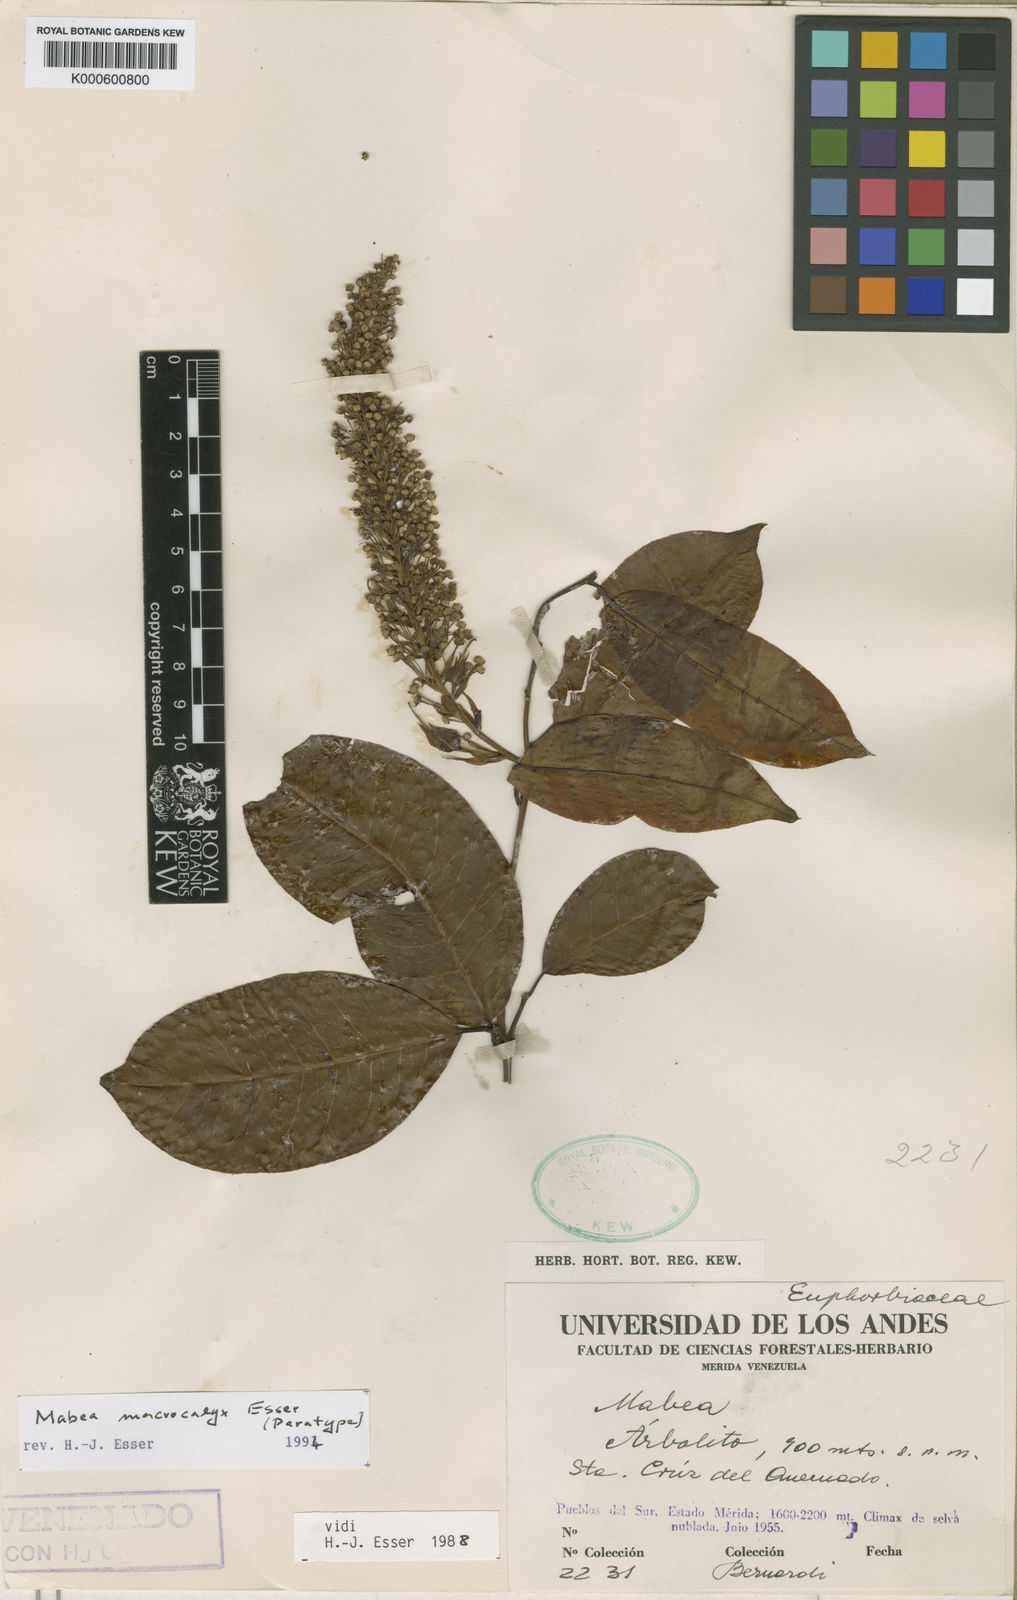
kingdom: Plantae
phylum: Tracheophyta
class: Magnoliopsida
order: Malpighiales
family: Euphorbiaceae
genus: Mabea
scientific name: Mabea macrocalyx
